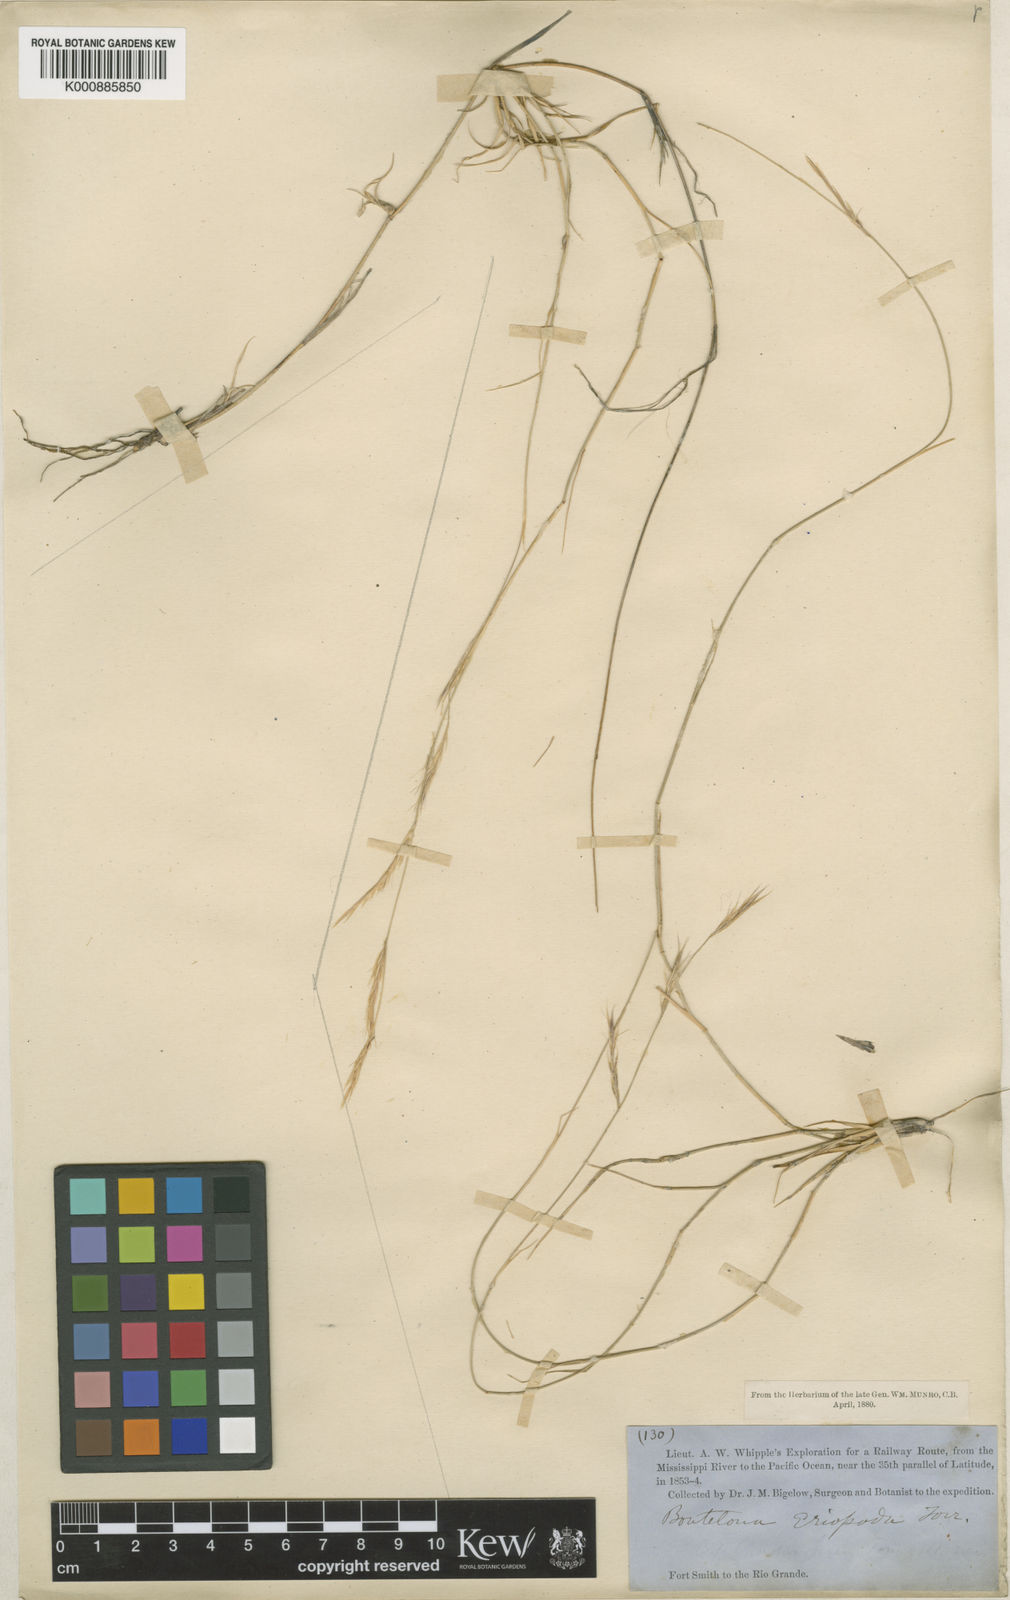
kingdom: Plantae
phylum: Tracheophyta
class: Liliopsida
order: Poales
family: Poaceae
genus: Bouteloua
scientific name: Bouteloua eriopoda
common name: Woolly foot grama
